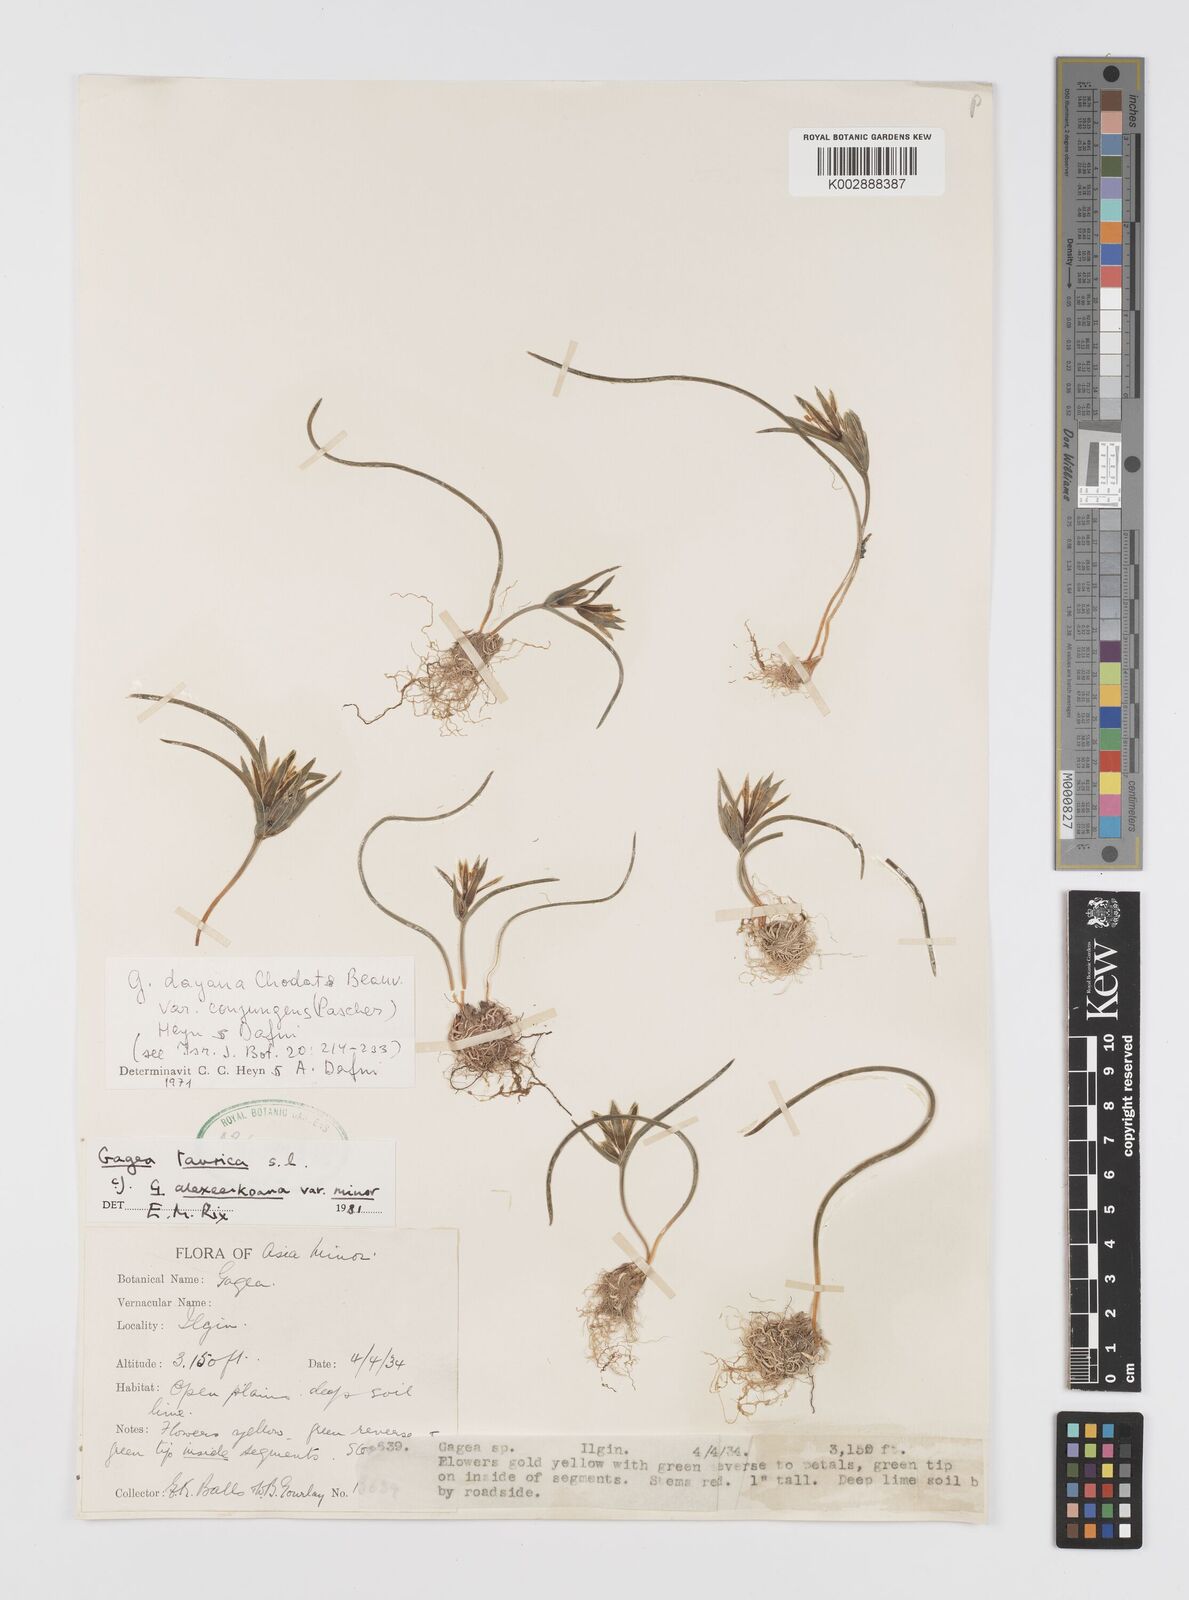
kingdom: Plantae
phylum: Tracheophyta
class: Liliopsida
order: Liliales
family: Liliaceae
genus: Gagea
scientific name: Gagea caroli-kochii
